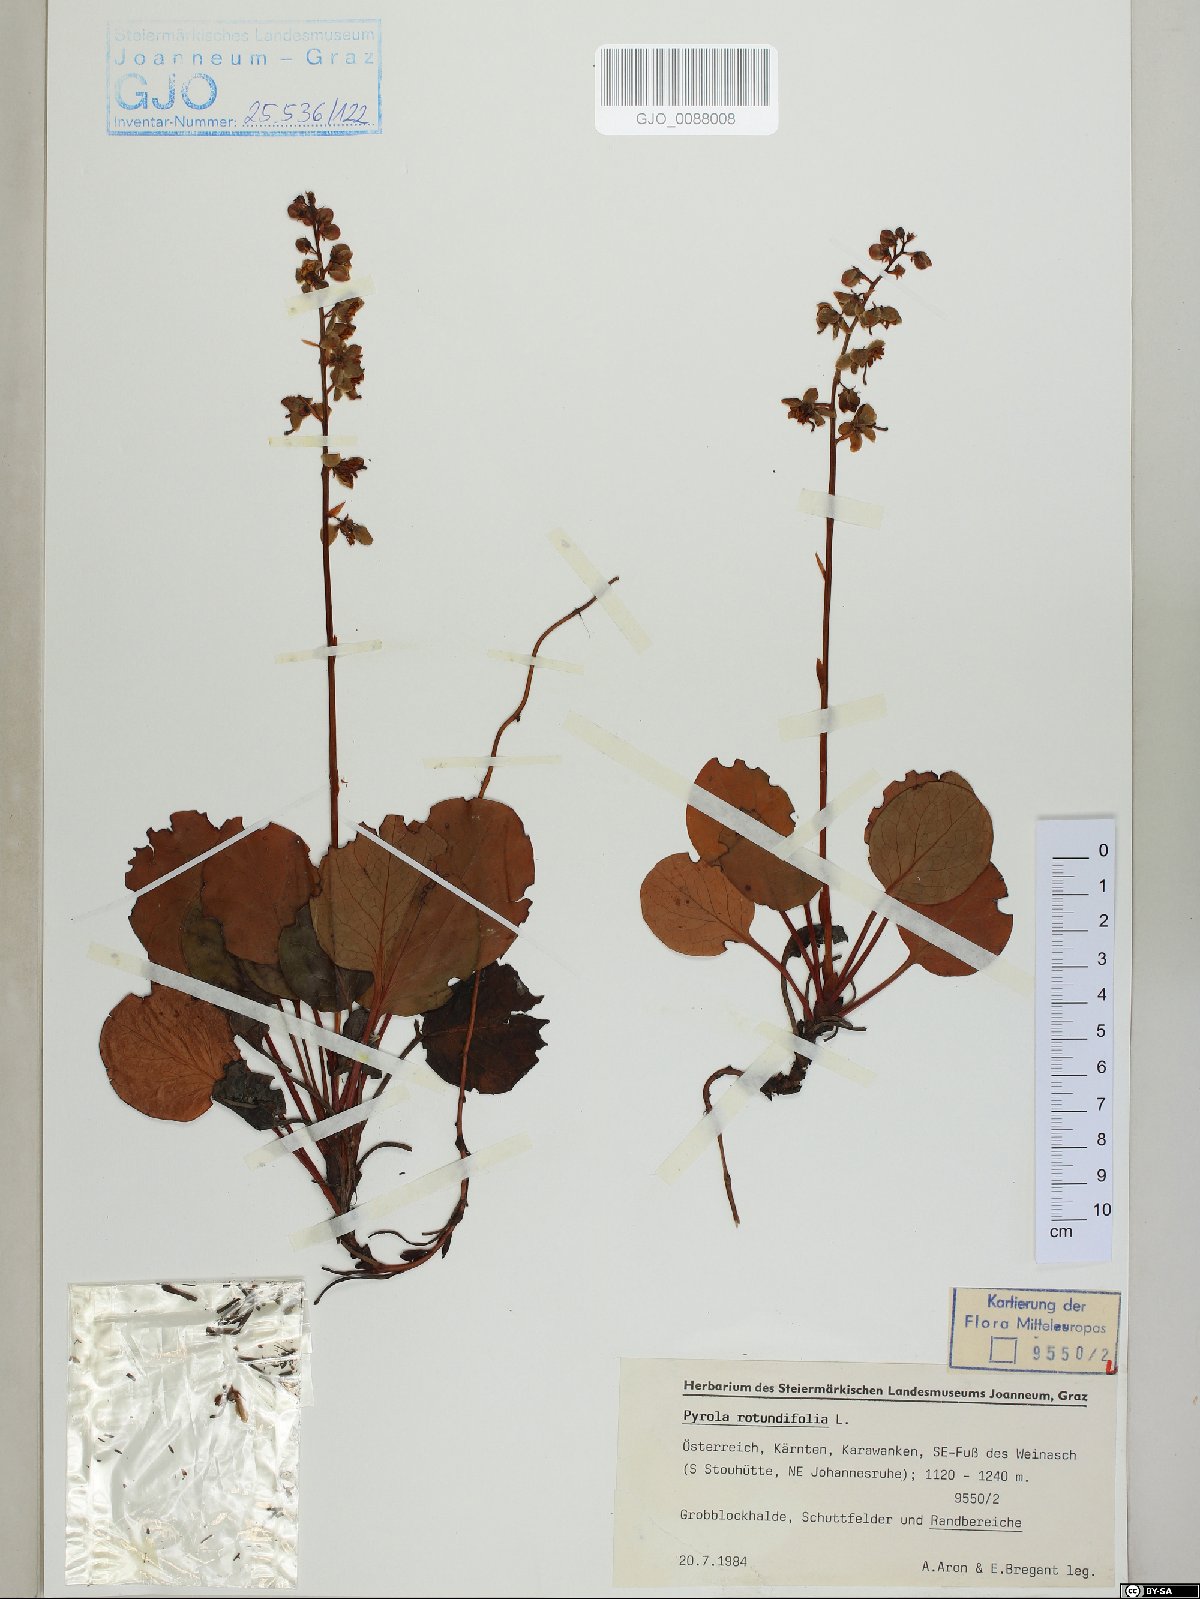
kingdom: Plantae
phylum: Tracheophyta
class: Magnoliopsida
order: Ericales
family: Ericaceae
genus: Pyrola
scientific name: Pyrola rotundifolia
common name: Round-leaved wintergreen
